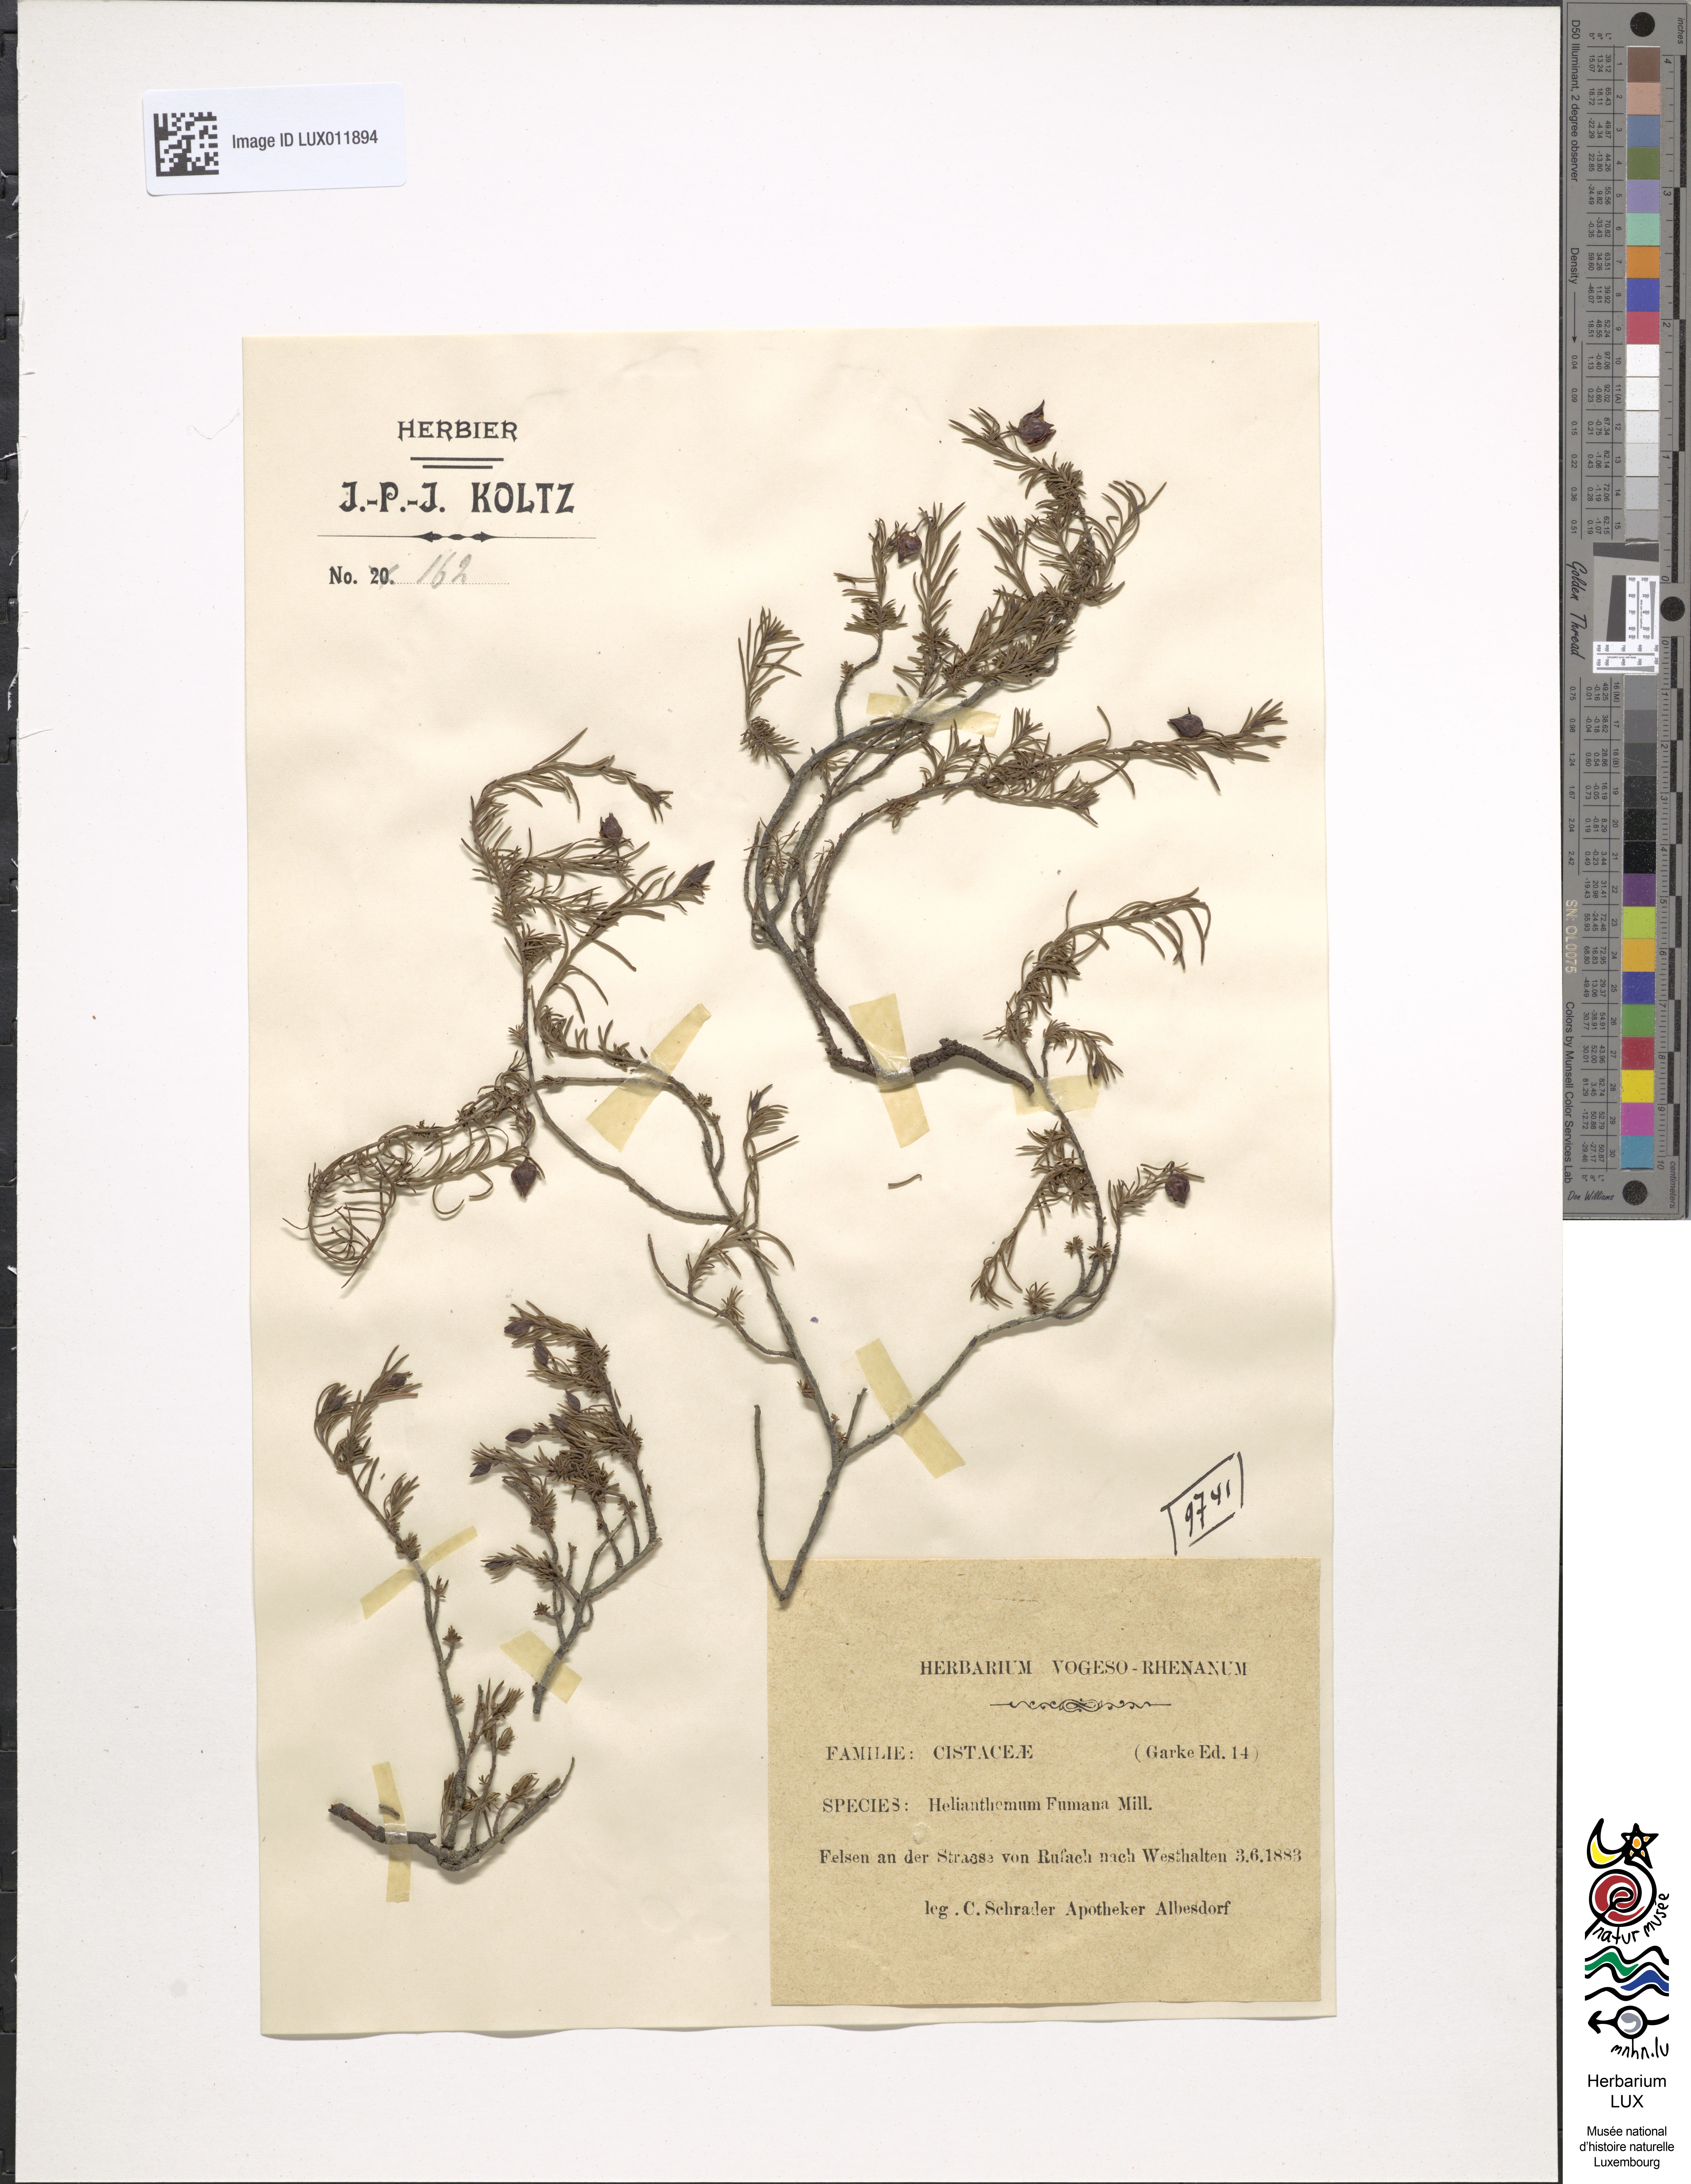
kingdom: Plantae
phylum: Tracheophyta
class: Magnoliopsida
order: Malvales
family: Cistaceae
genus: Fumana
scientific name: Fumana ericoides
